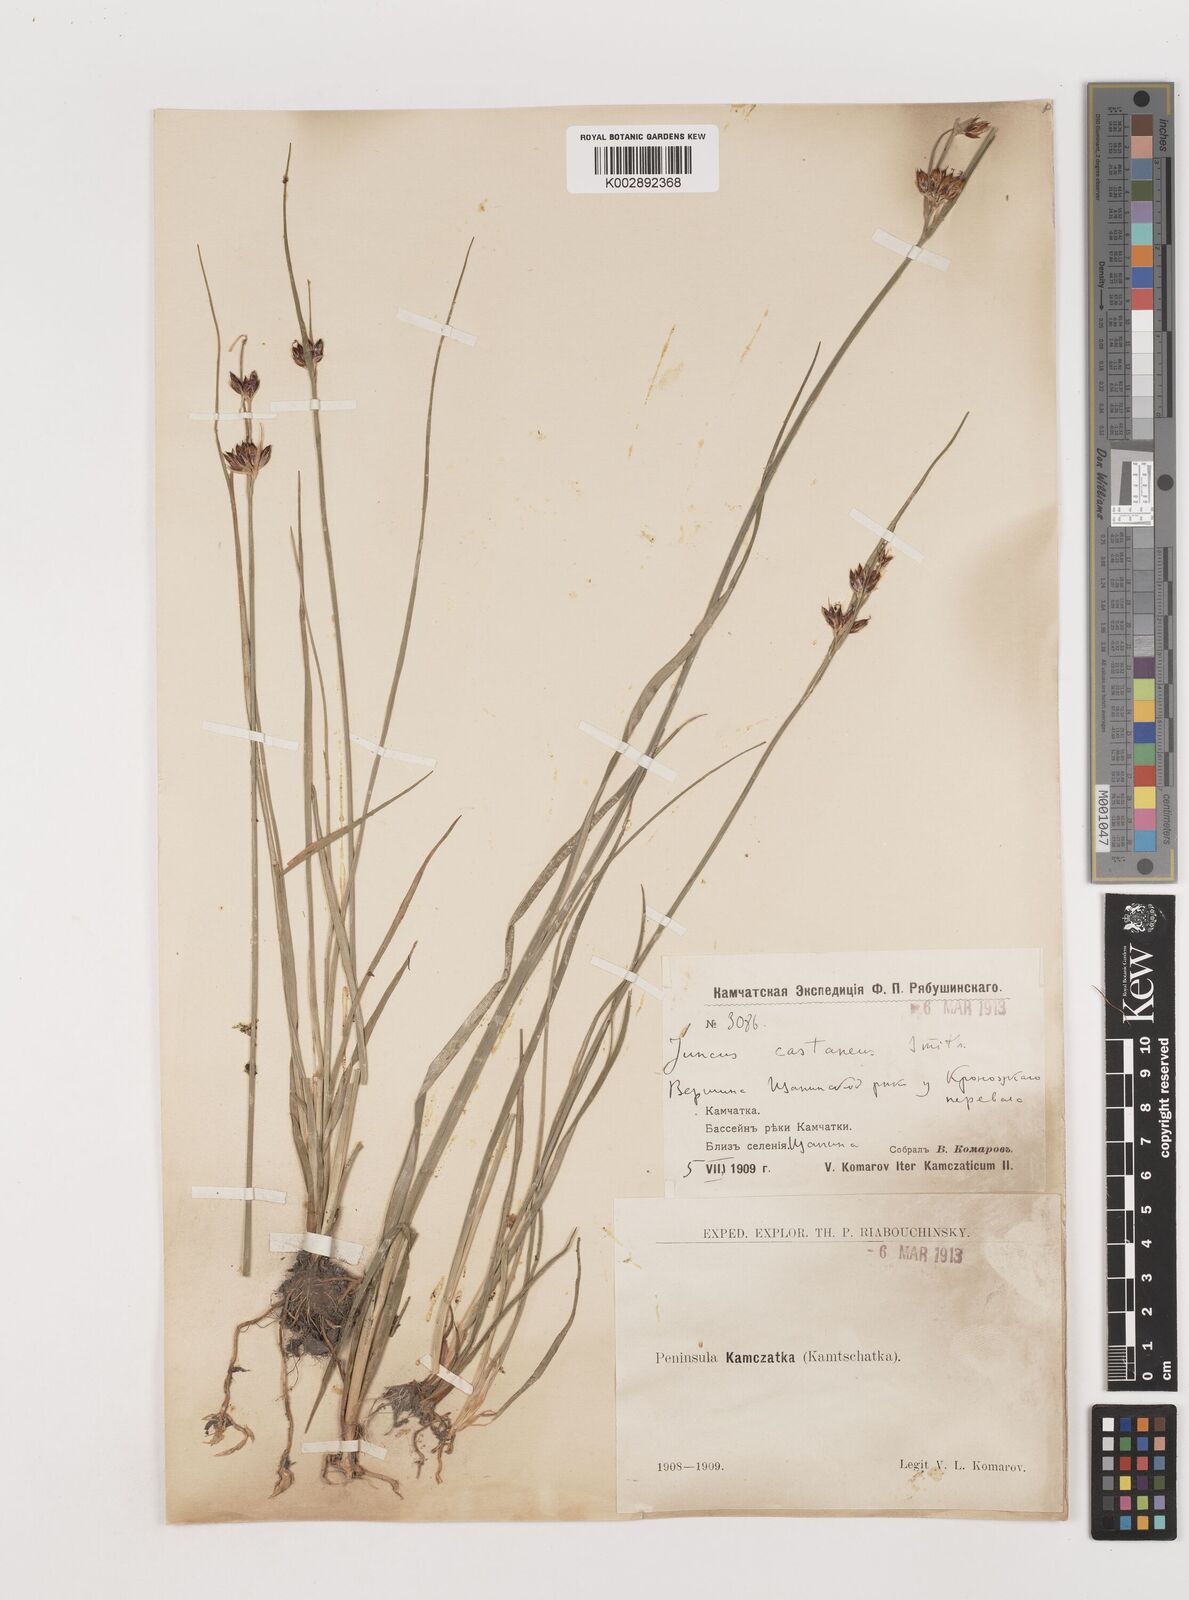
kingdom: Plantae
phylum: Tracheophyta
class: Liliopsida
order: Poales
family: Juncaceae
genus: Juncus
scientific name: Juncus castaneus
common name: Chestnut rush
